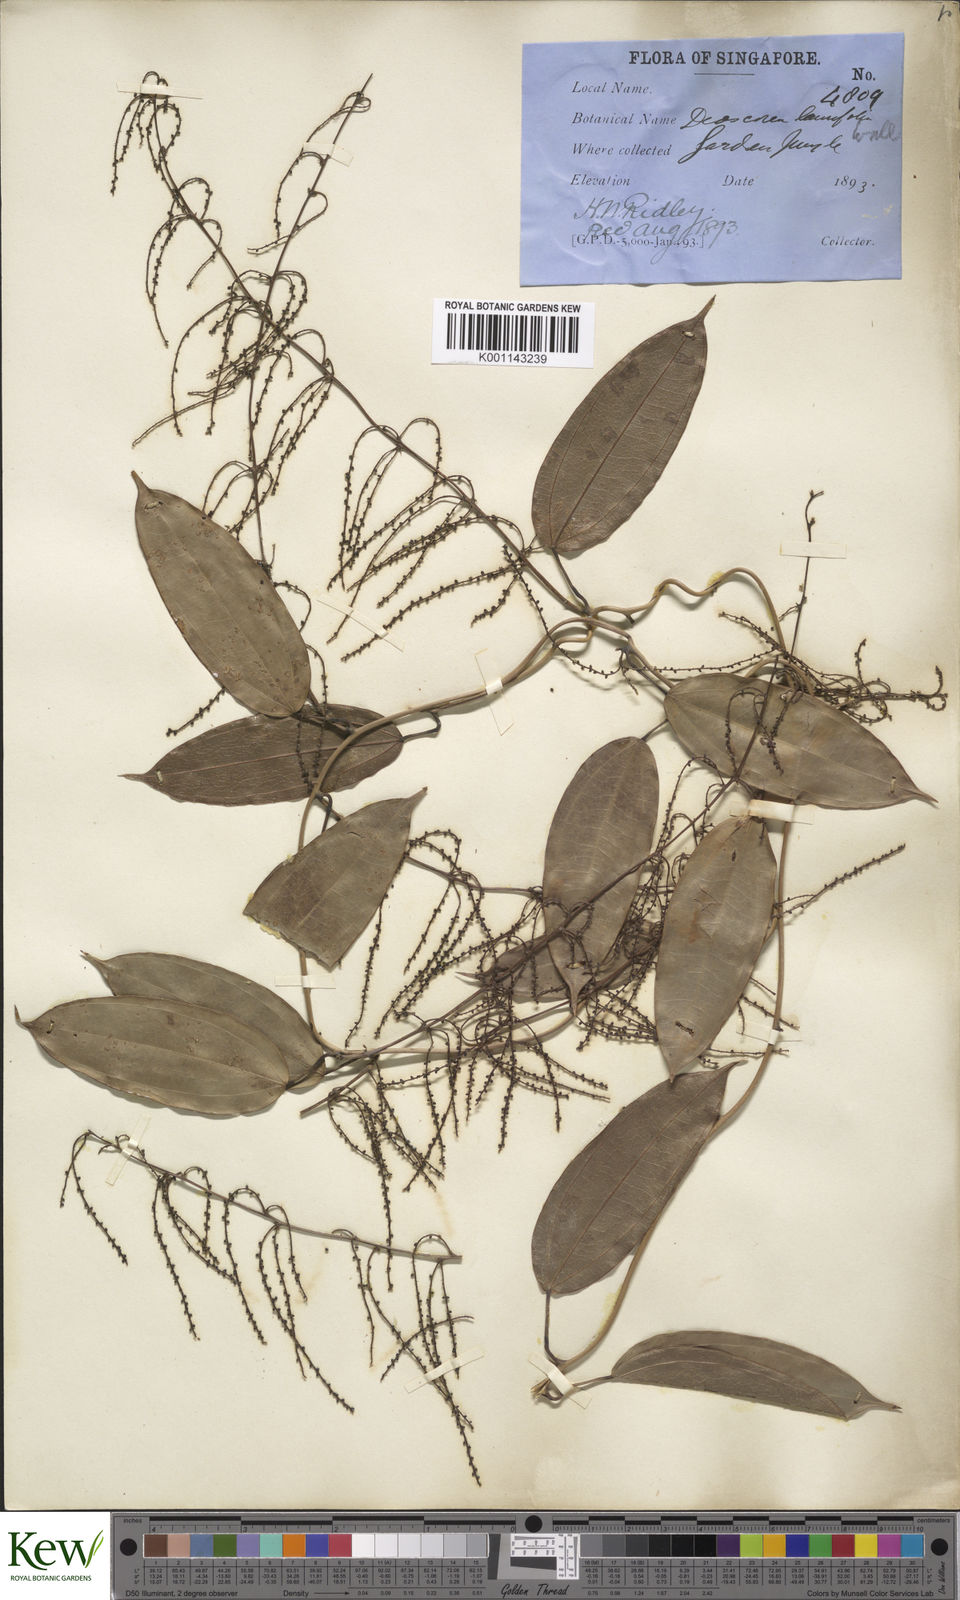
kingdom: Plantae
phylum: Tracheophyta
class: Liliopsida
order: Dioscoreales
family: Dioscoreaceae
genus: Dioscorea
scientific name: Dioscorea laurifolia
